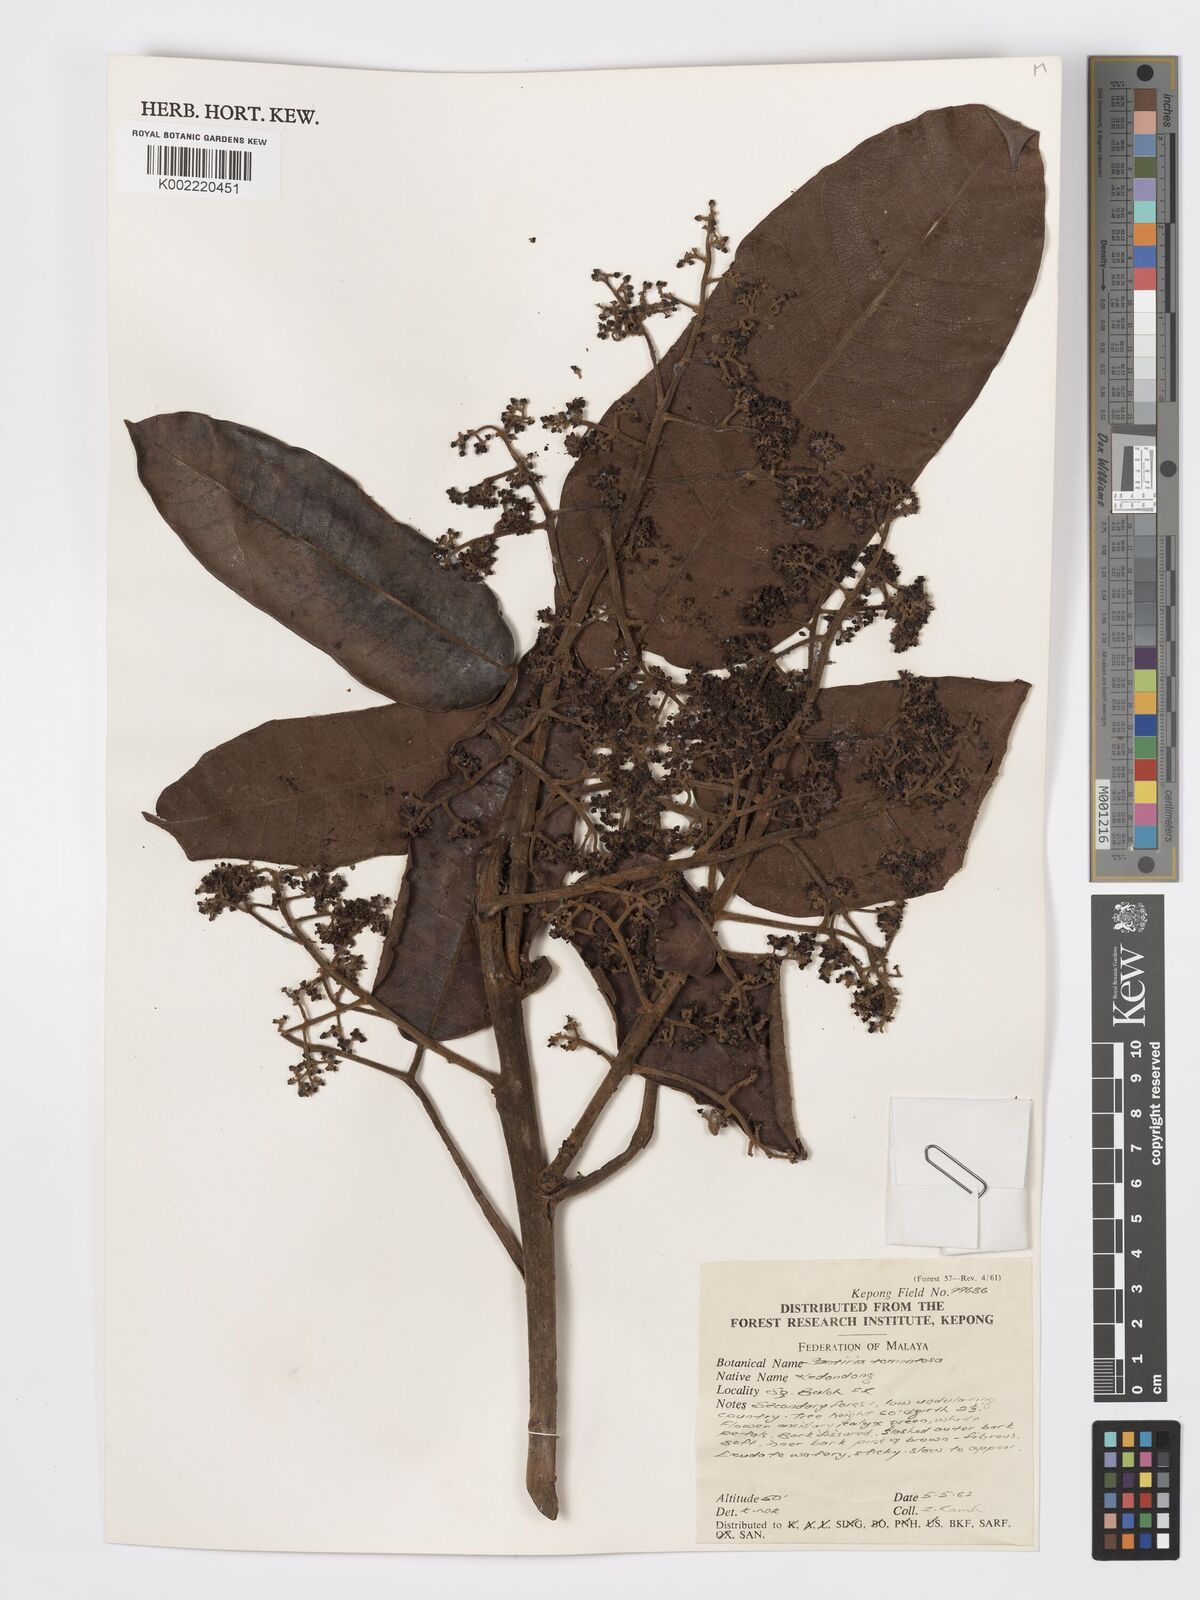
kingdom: Plantae
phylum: Tracheophyta
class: Magnoliopsida
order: Sapindales
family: Burseraceae
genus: Santiria
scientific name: Santiria tomentosa
